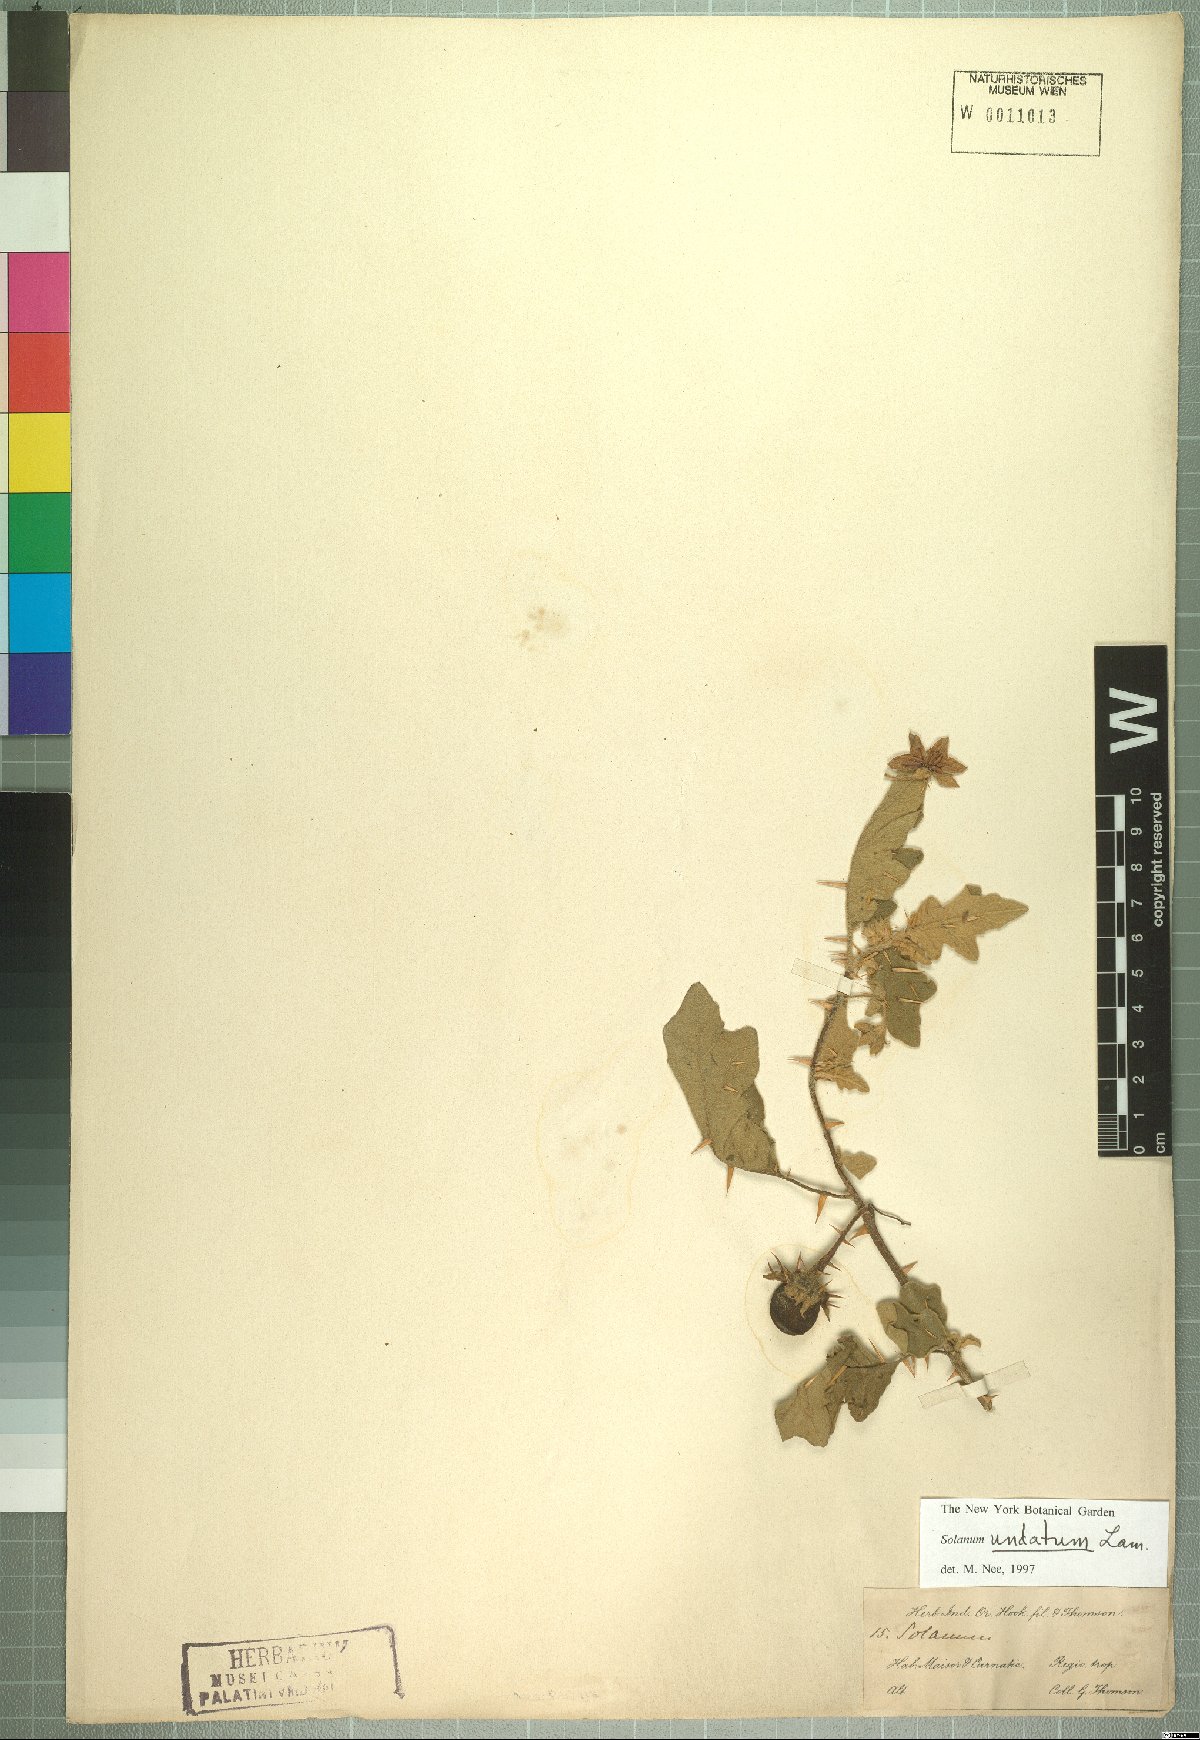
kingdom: Plantae
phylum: Tracheophyta
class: Magnoliopsida
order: Solanales
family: Solanaceae
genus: Solanum
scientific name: Solanum insanum
